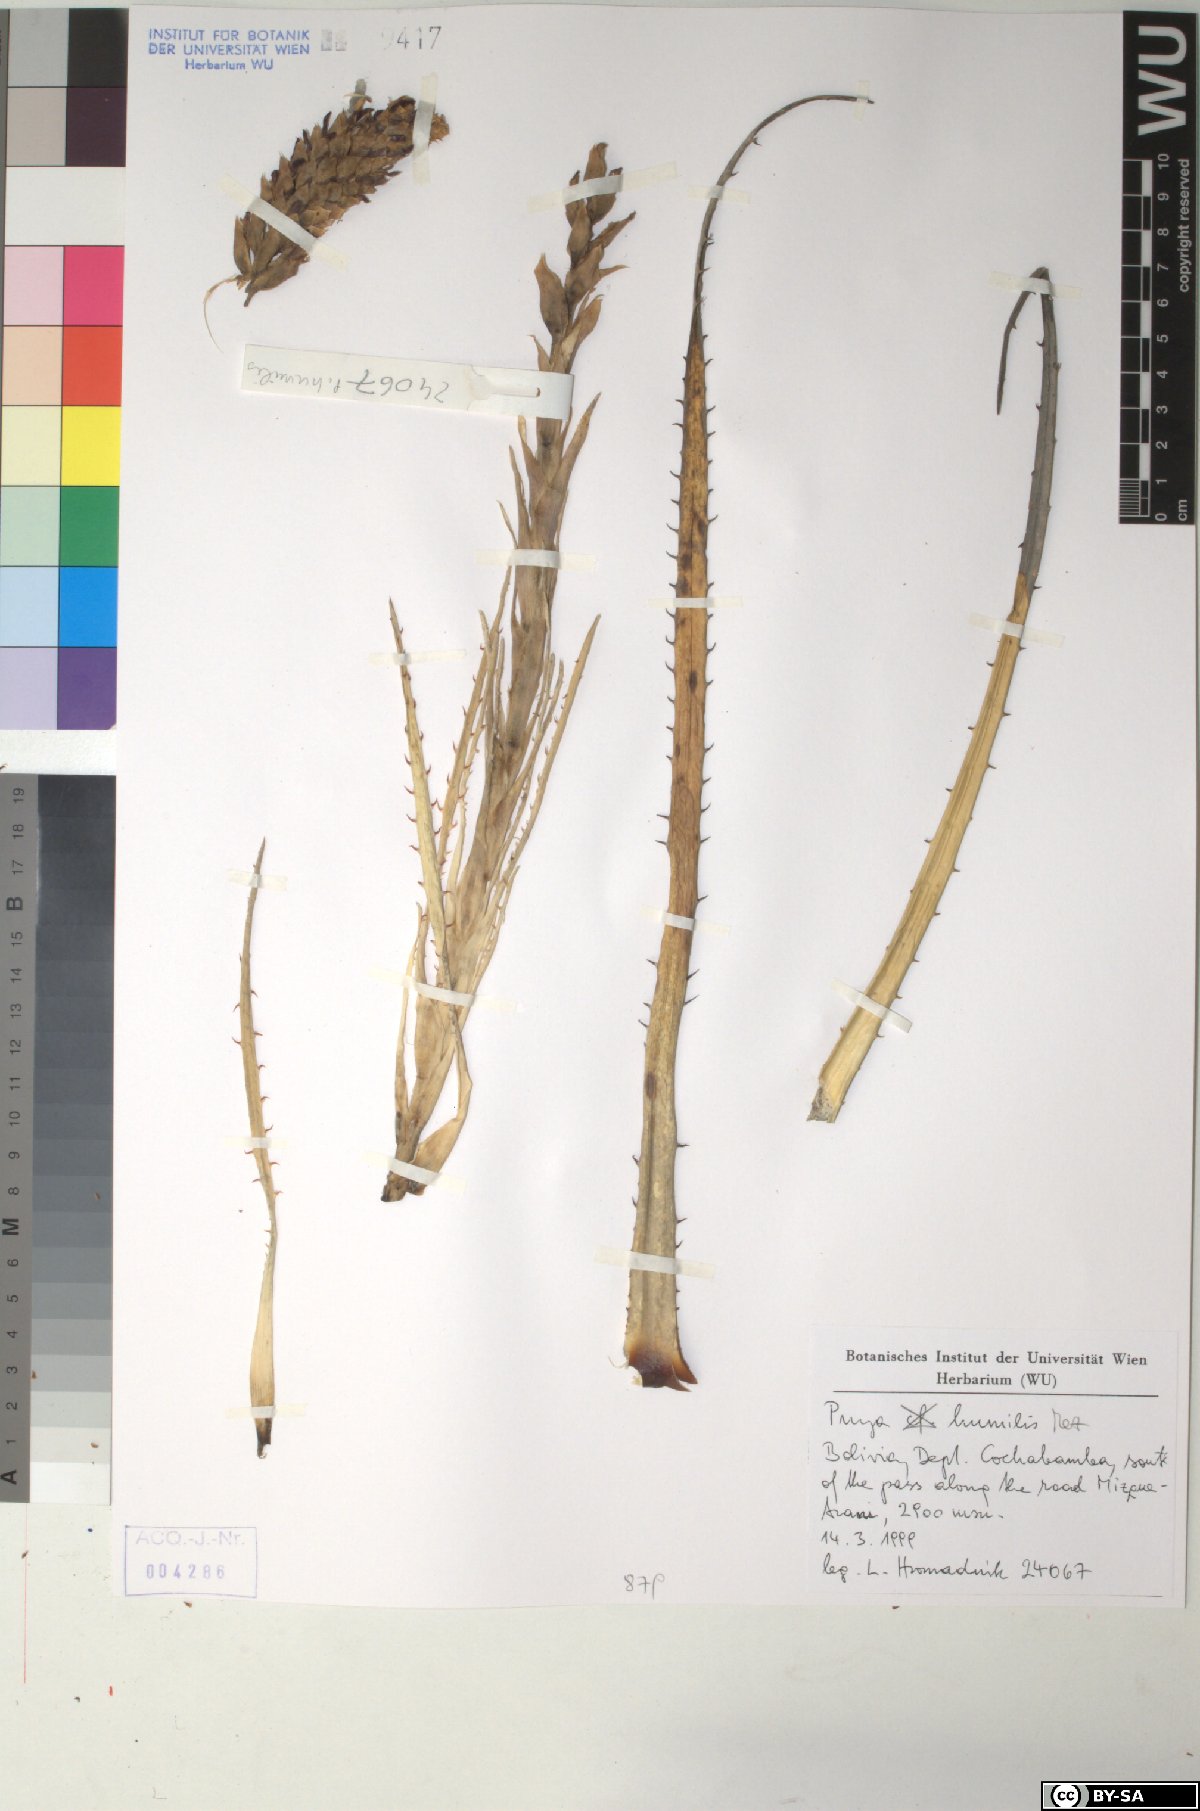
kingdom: Plantae
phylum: Tracheophyta
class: Liliopsida
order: Poales
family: Bromeliaceae
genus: Puya
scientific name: Puya humilis
